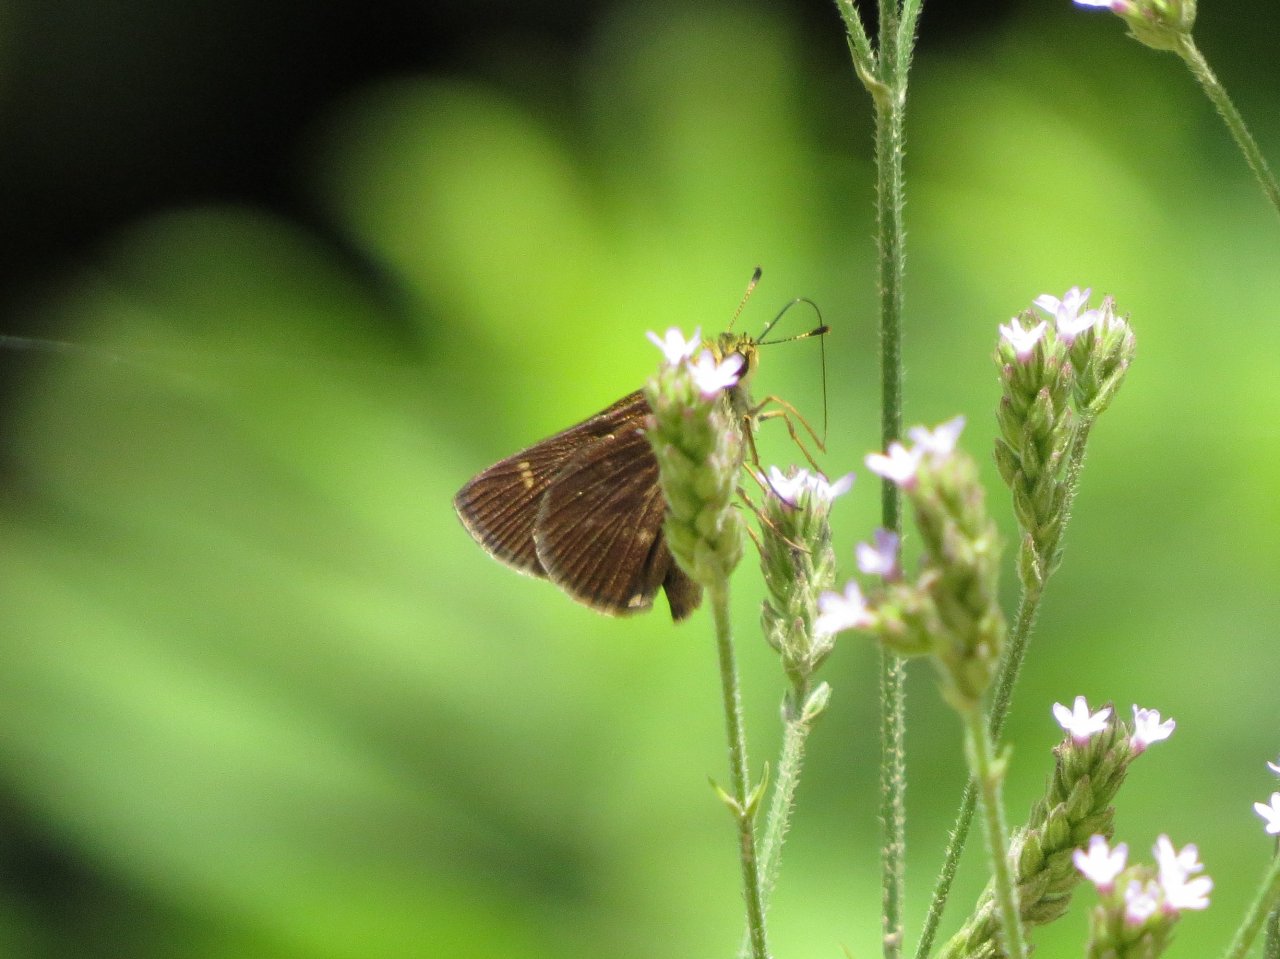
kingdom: Animalia
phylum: Arthropoda
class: Insecta
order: Lepidoptera
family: Hesperiidae
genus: Vernia
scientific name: Vernia verna
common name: Little Glassywing
